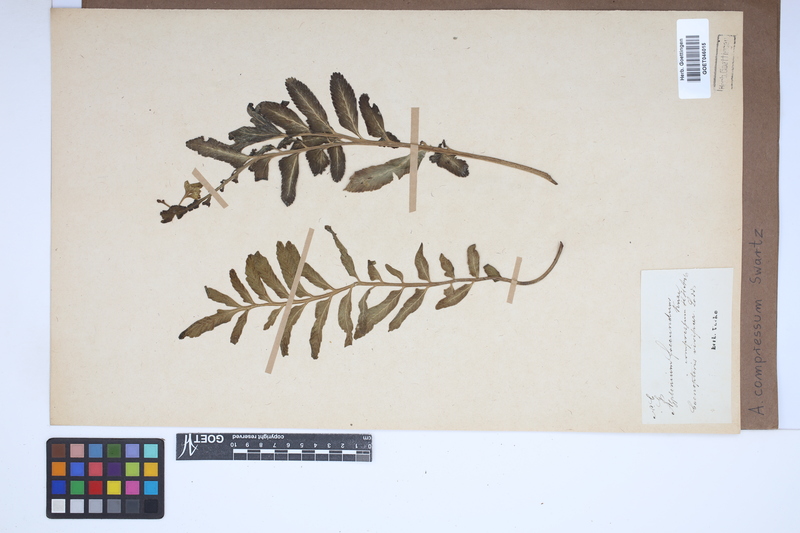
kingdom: Plantae
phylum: Tracheophyta
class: Polypodiopsida
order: Polypodiales
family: Aspleniaceae
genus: Asplenium
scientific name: Asplenium compressum
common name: Hen and chicks fern
